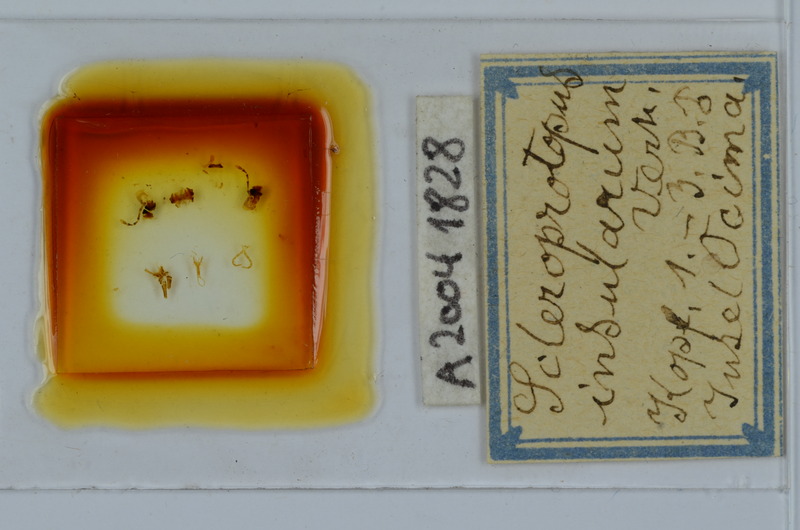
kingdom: Animalia
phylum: Arthropoda
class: Diplopoda
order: Julida
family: Mongoliulidae
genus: Nesoprotopus
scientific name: Nesoprotopus insularum
